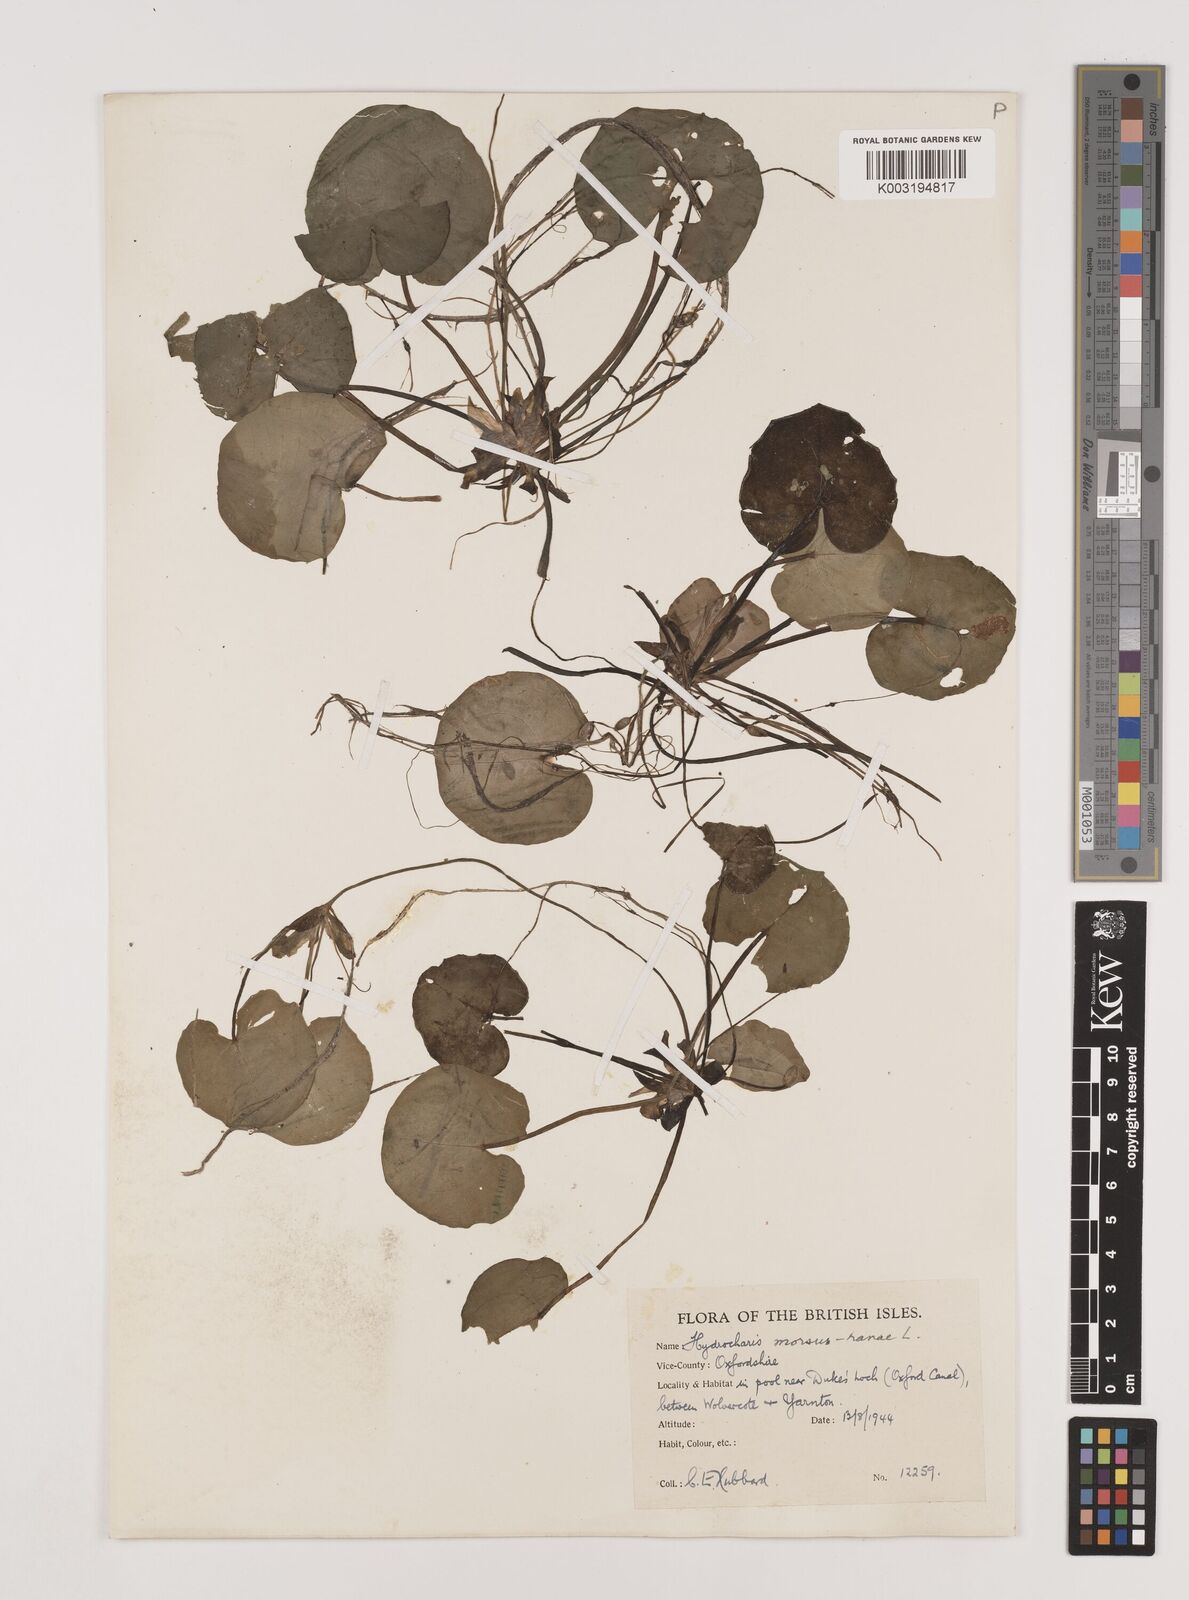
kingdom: Plantae
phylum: Tracheophyta
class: Liliopsida
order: Alismatales
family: Hydrocharitaceae
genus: Hydrocharis
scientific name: Hydrocharis morsus-ranae
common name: Frogbit
